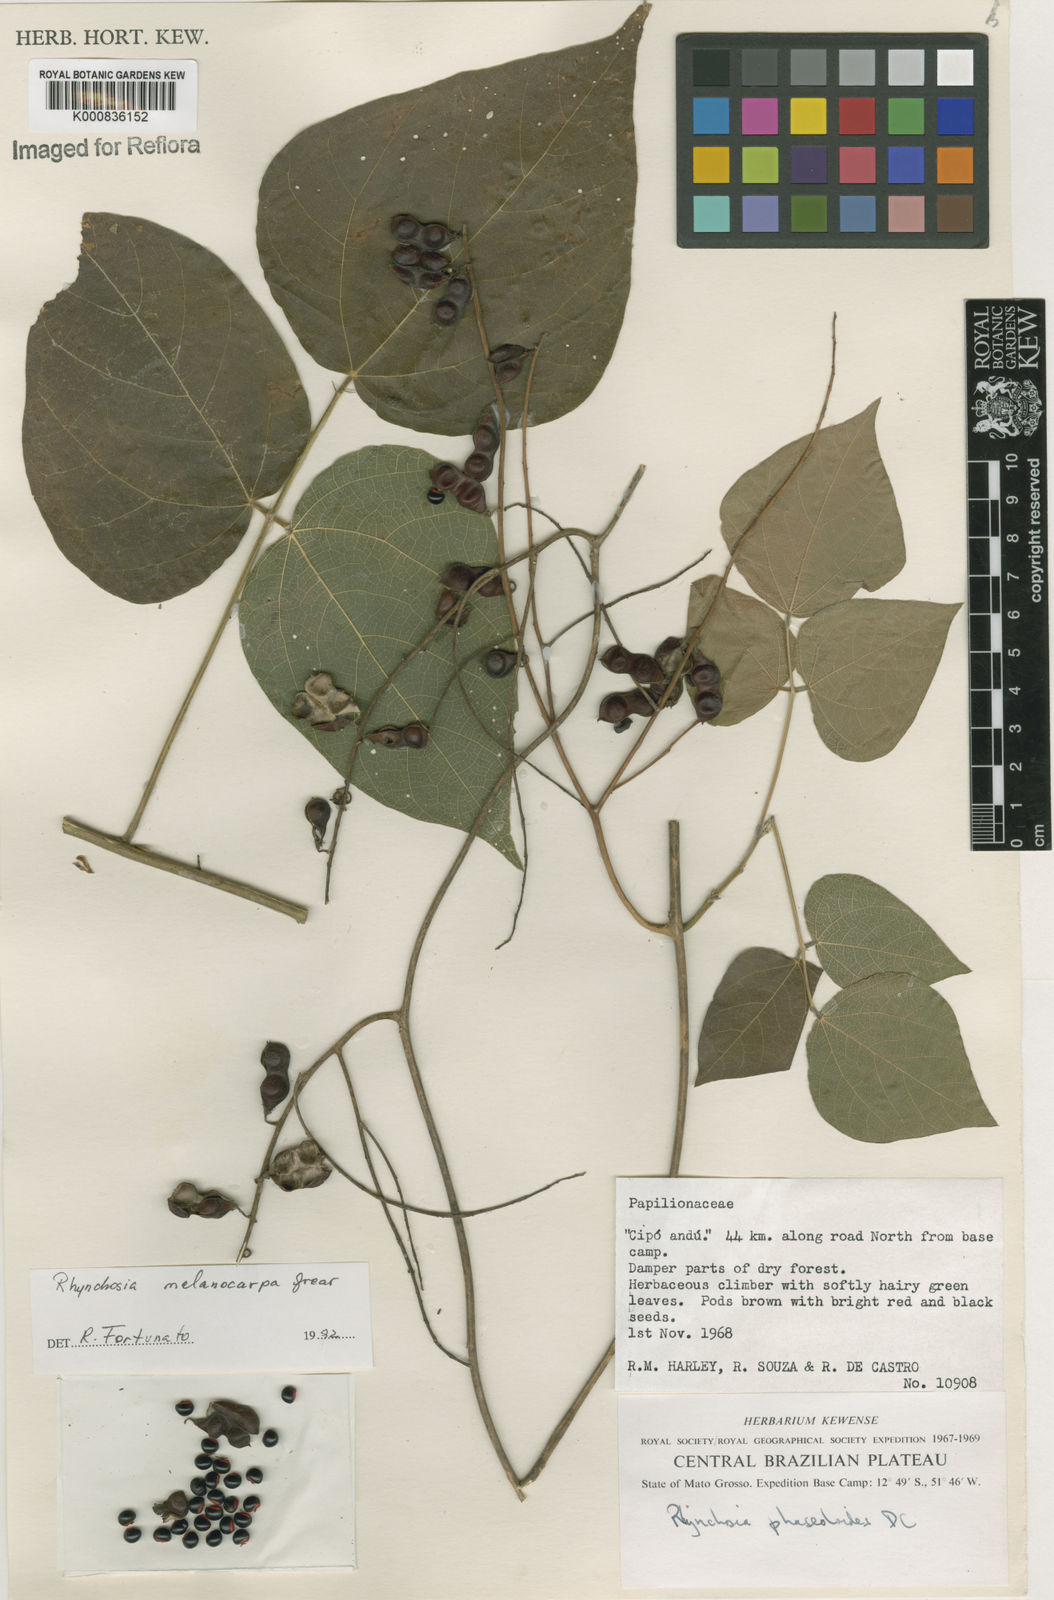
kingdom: Plantae
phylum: Tracheophyta
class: Magnoliopsida
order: Fabales
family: Fabaceae
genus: Rhynchosia
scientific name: Rhynchosia melanocarpa
